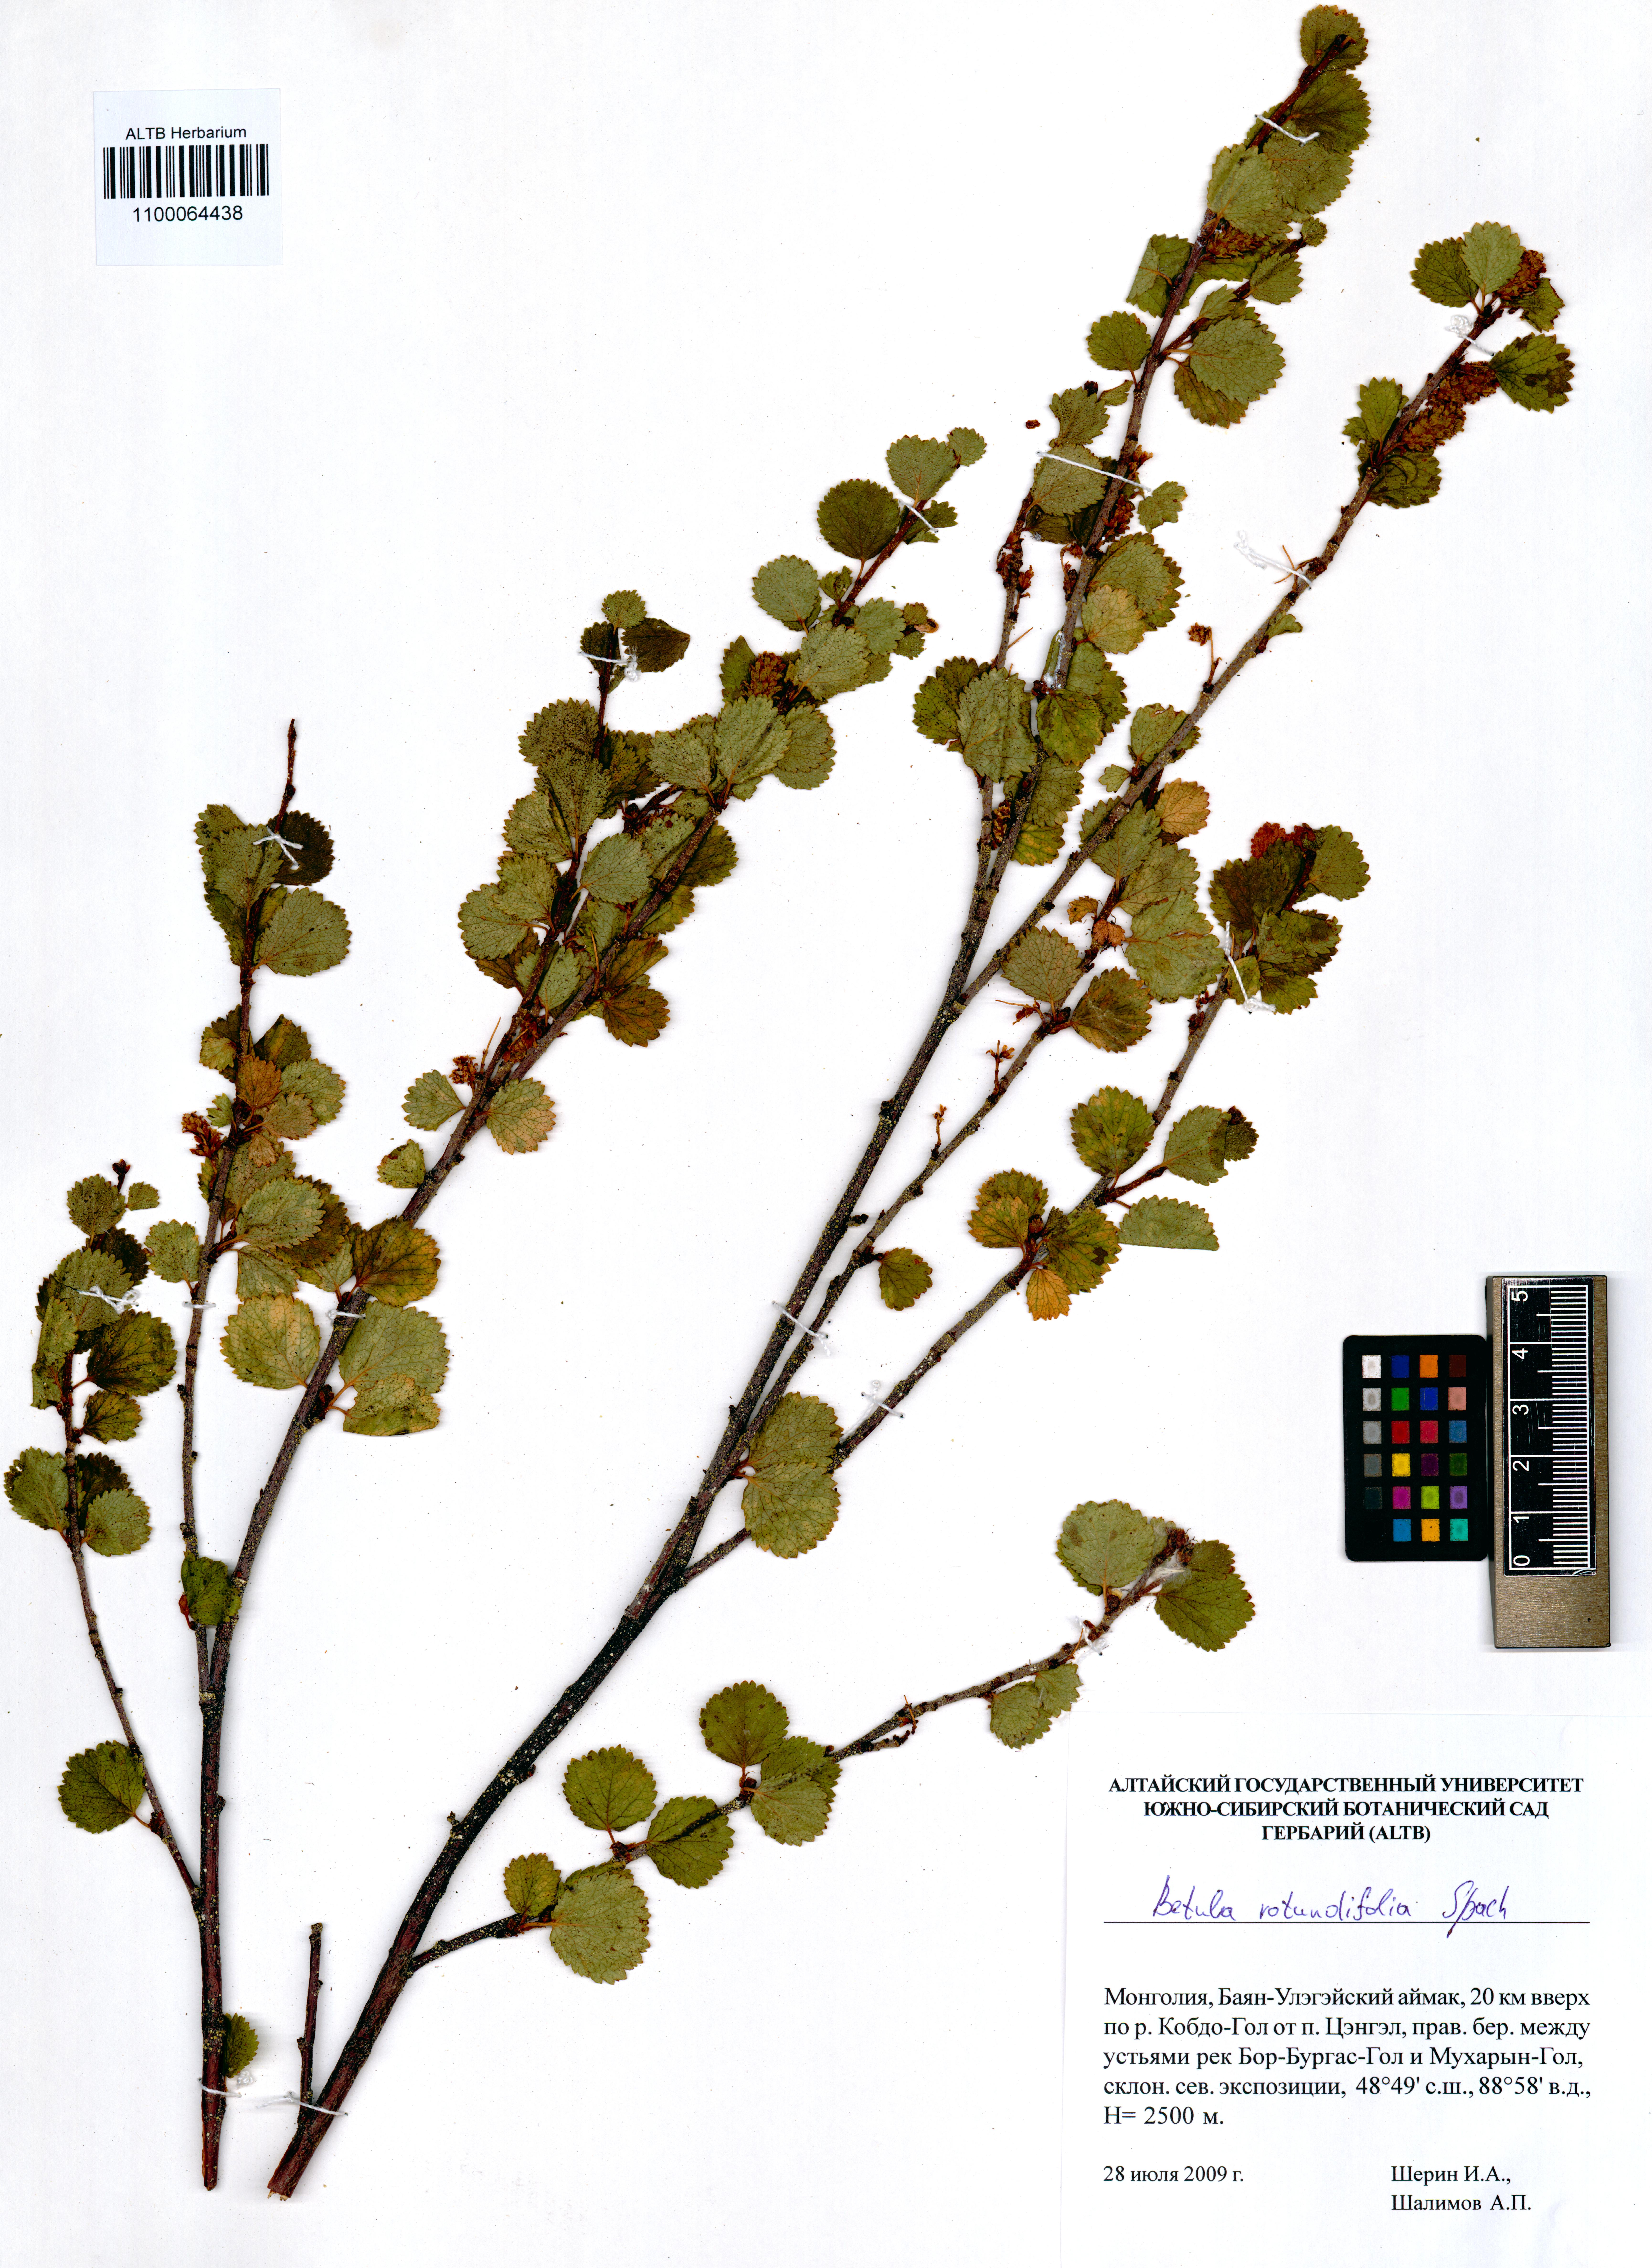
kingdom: Plantae
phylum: Tracheophyta
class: Magnoliopsida
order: Fagales
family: Betulaceae
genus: Betula
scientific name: Betula glandulosa
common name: Dwarf birch
